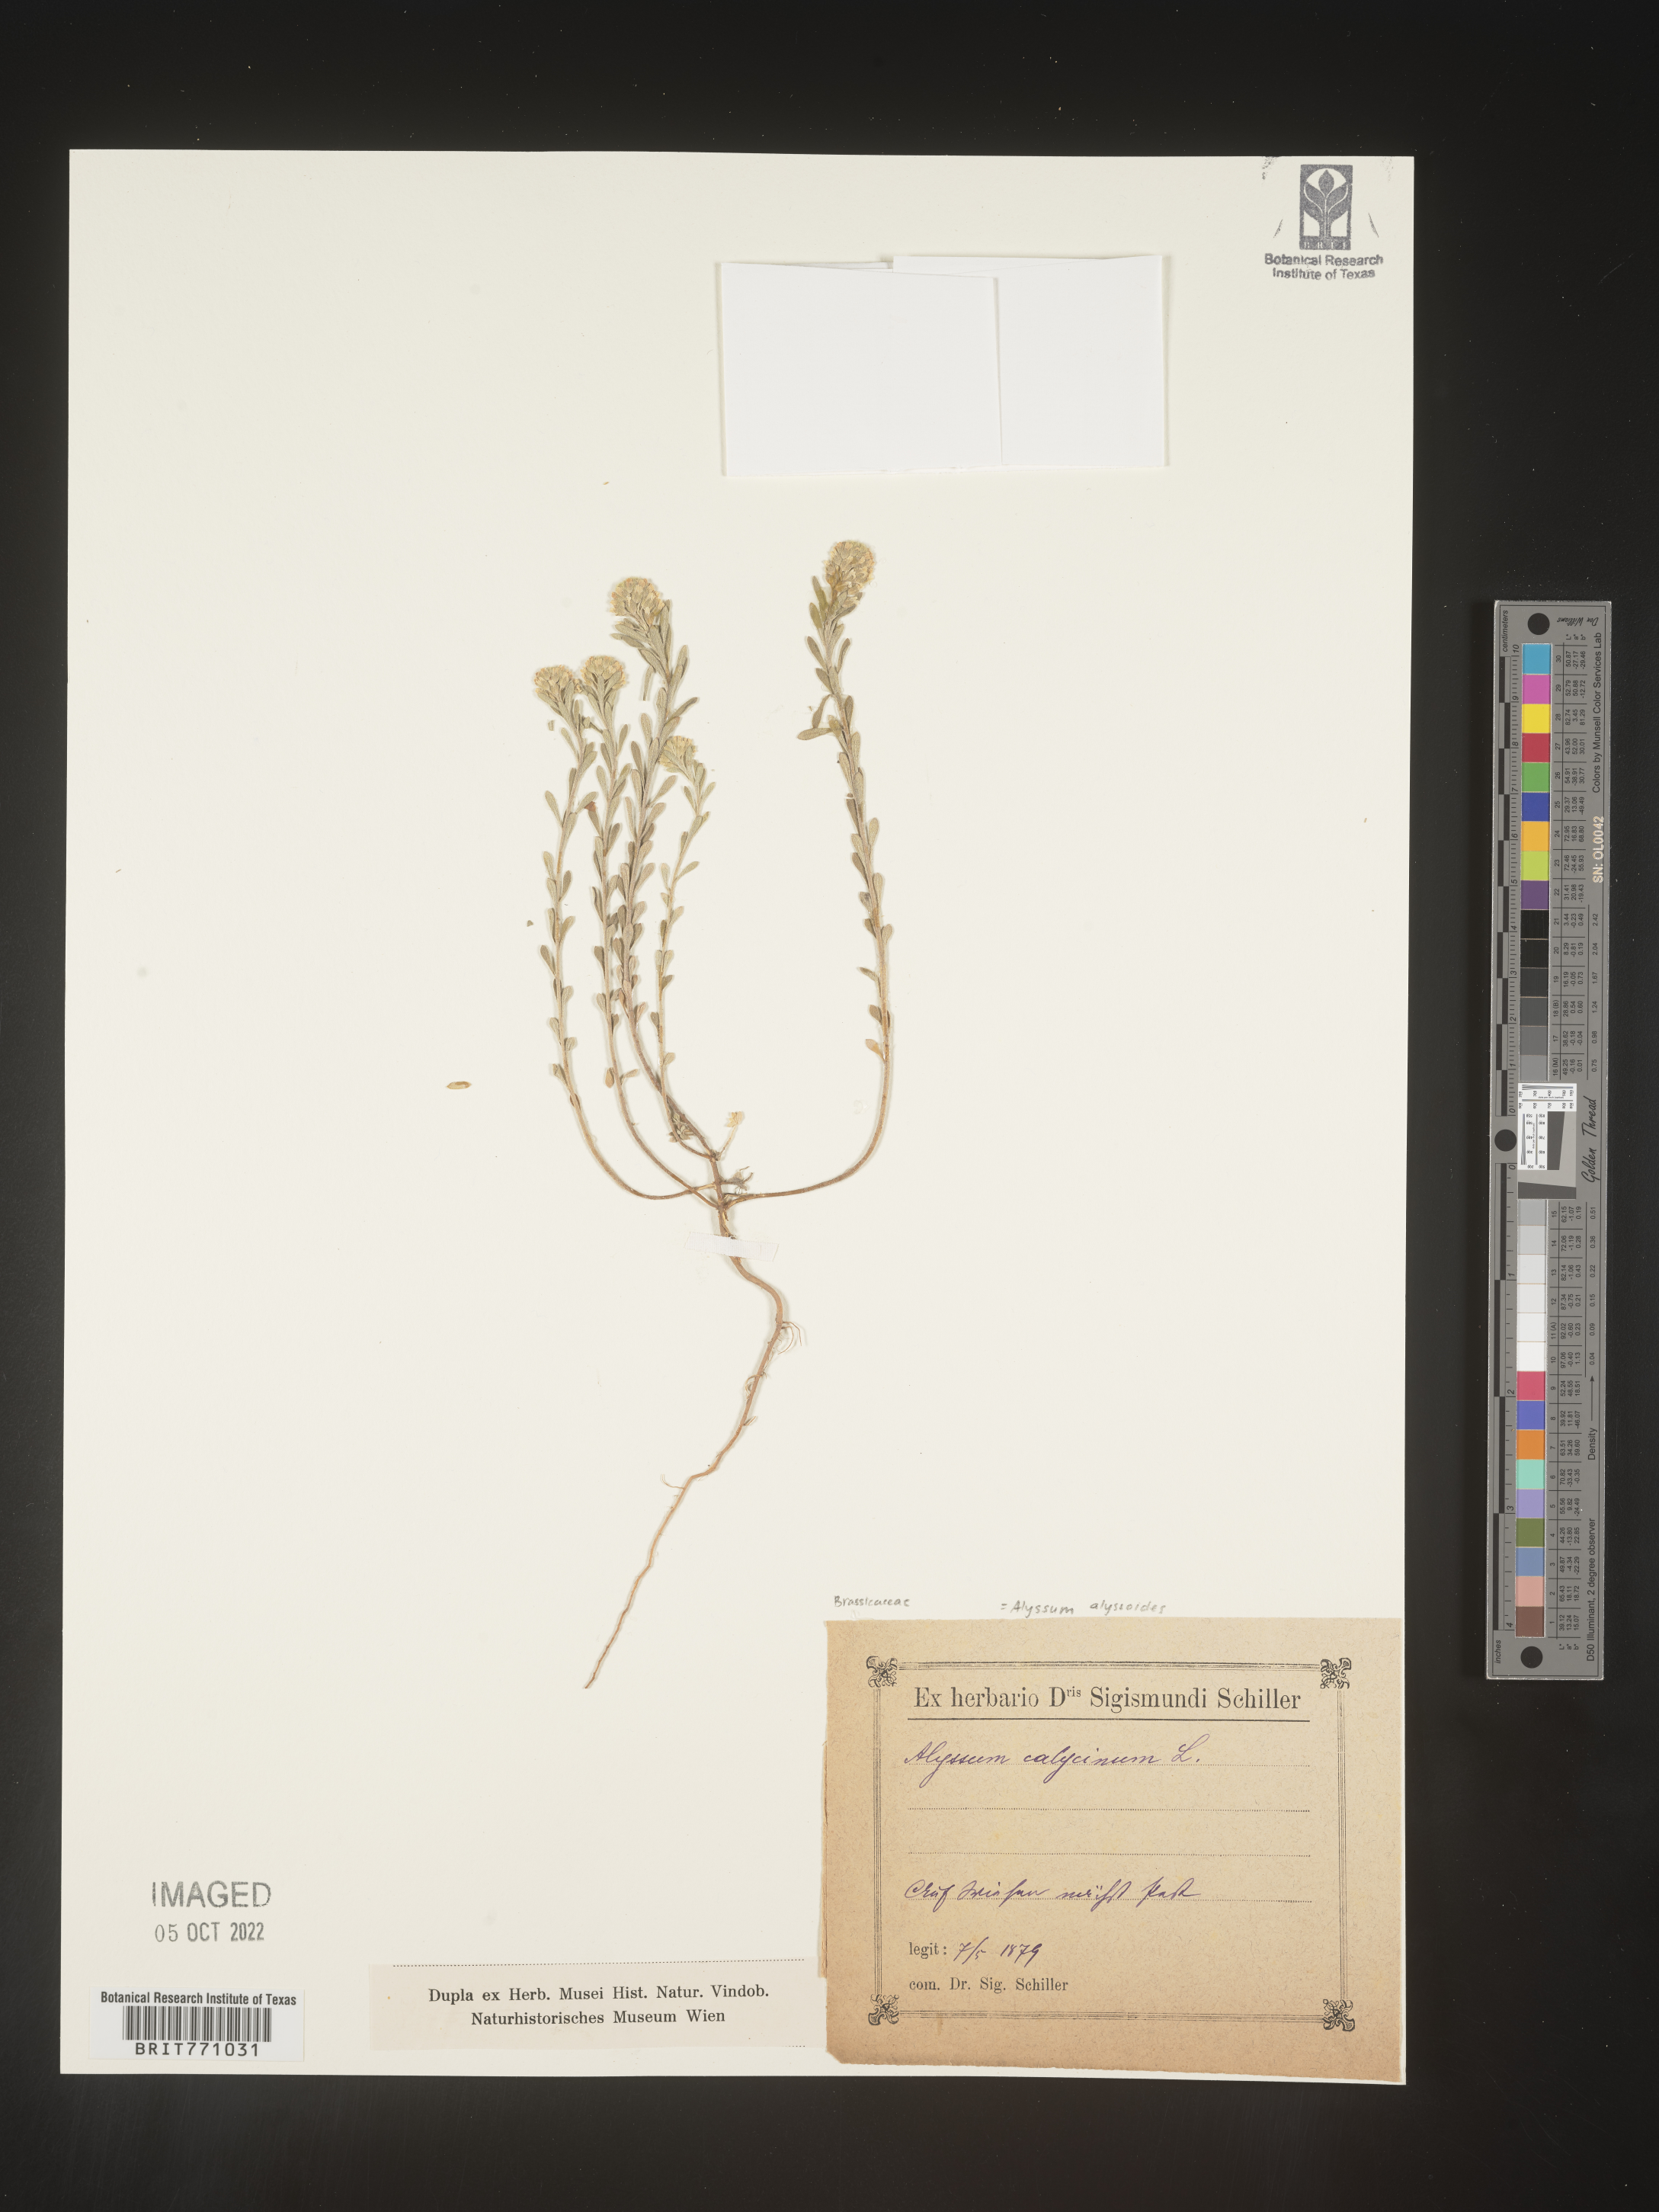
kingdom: Plantae
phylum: Tracheophyta
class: Magnoliopsida
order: Brassicales
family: Brassicaceae
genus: Alyssum
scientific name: Alyssum
